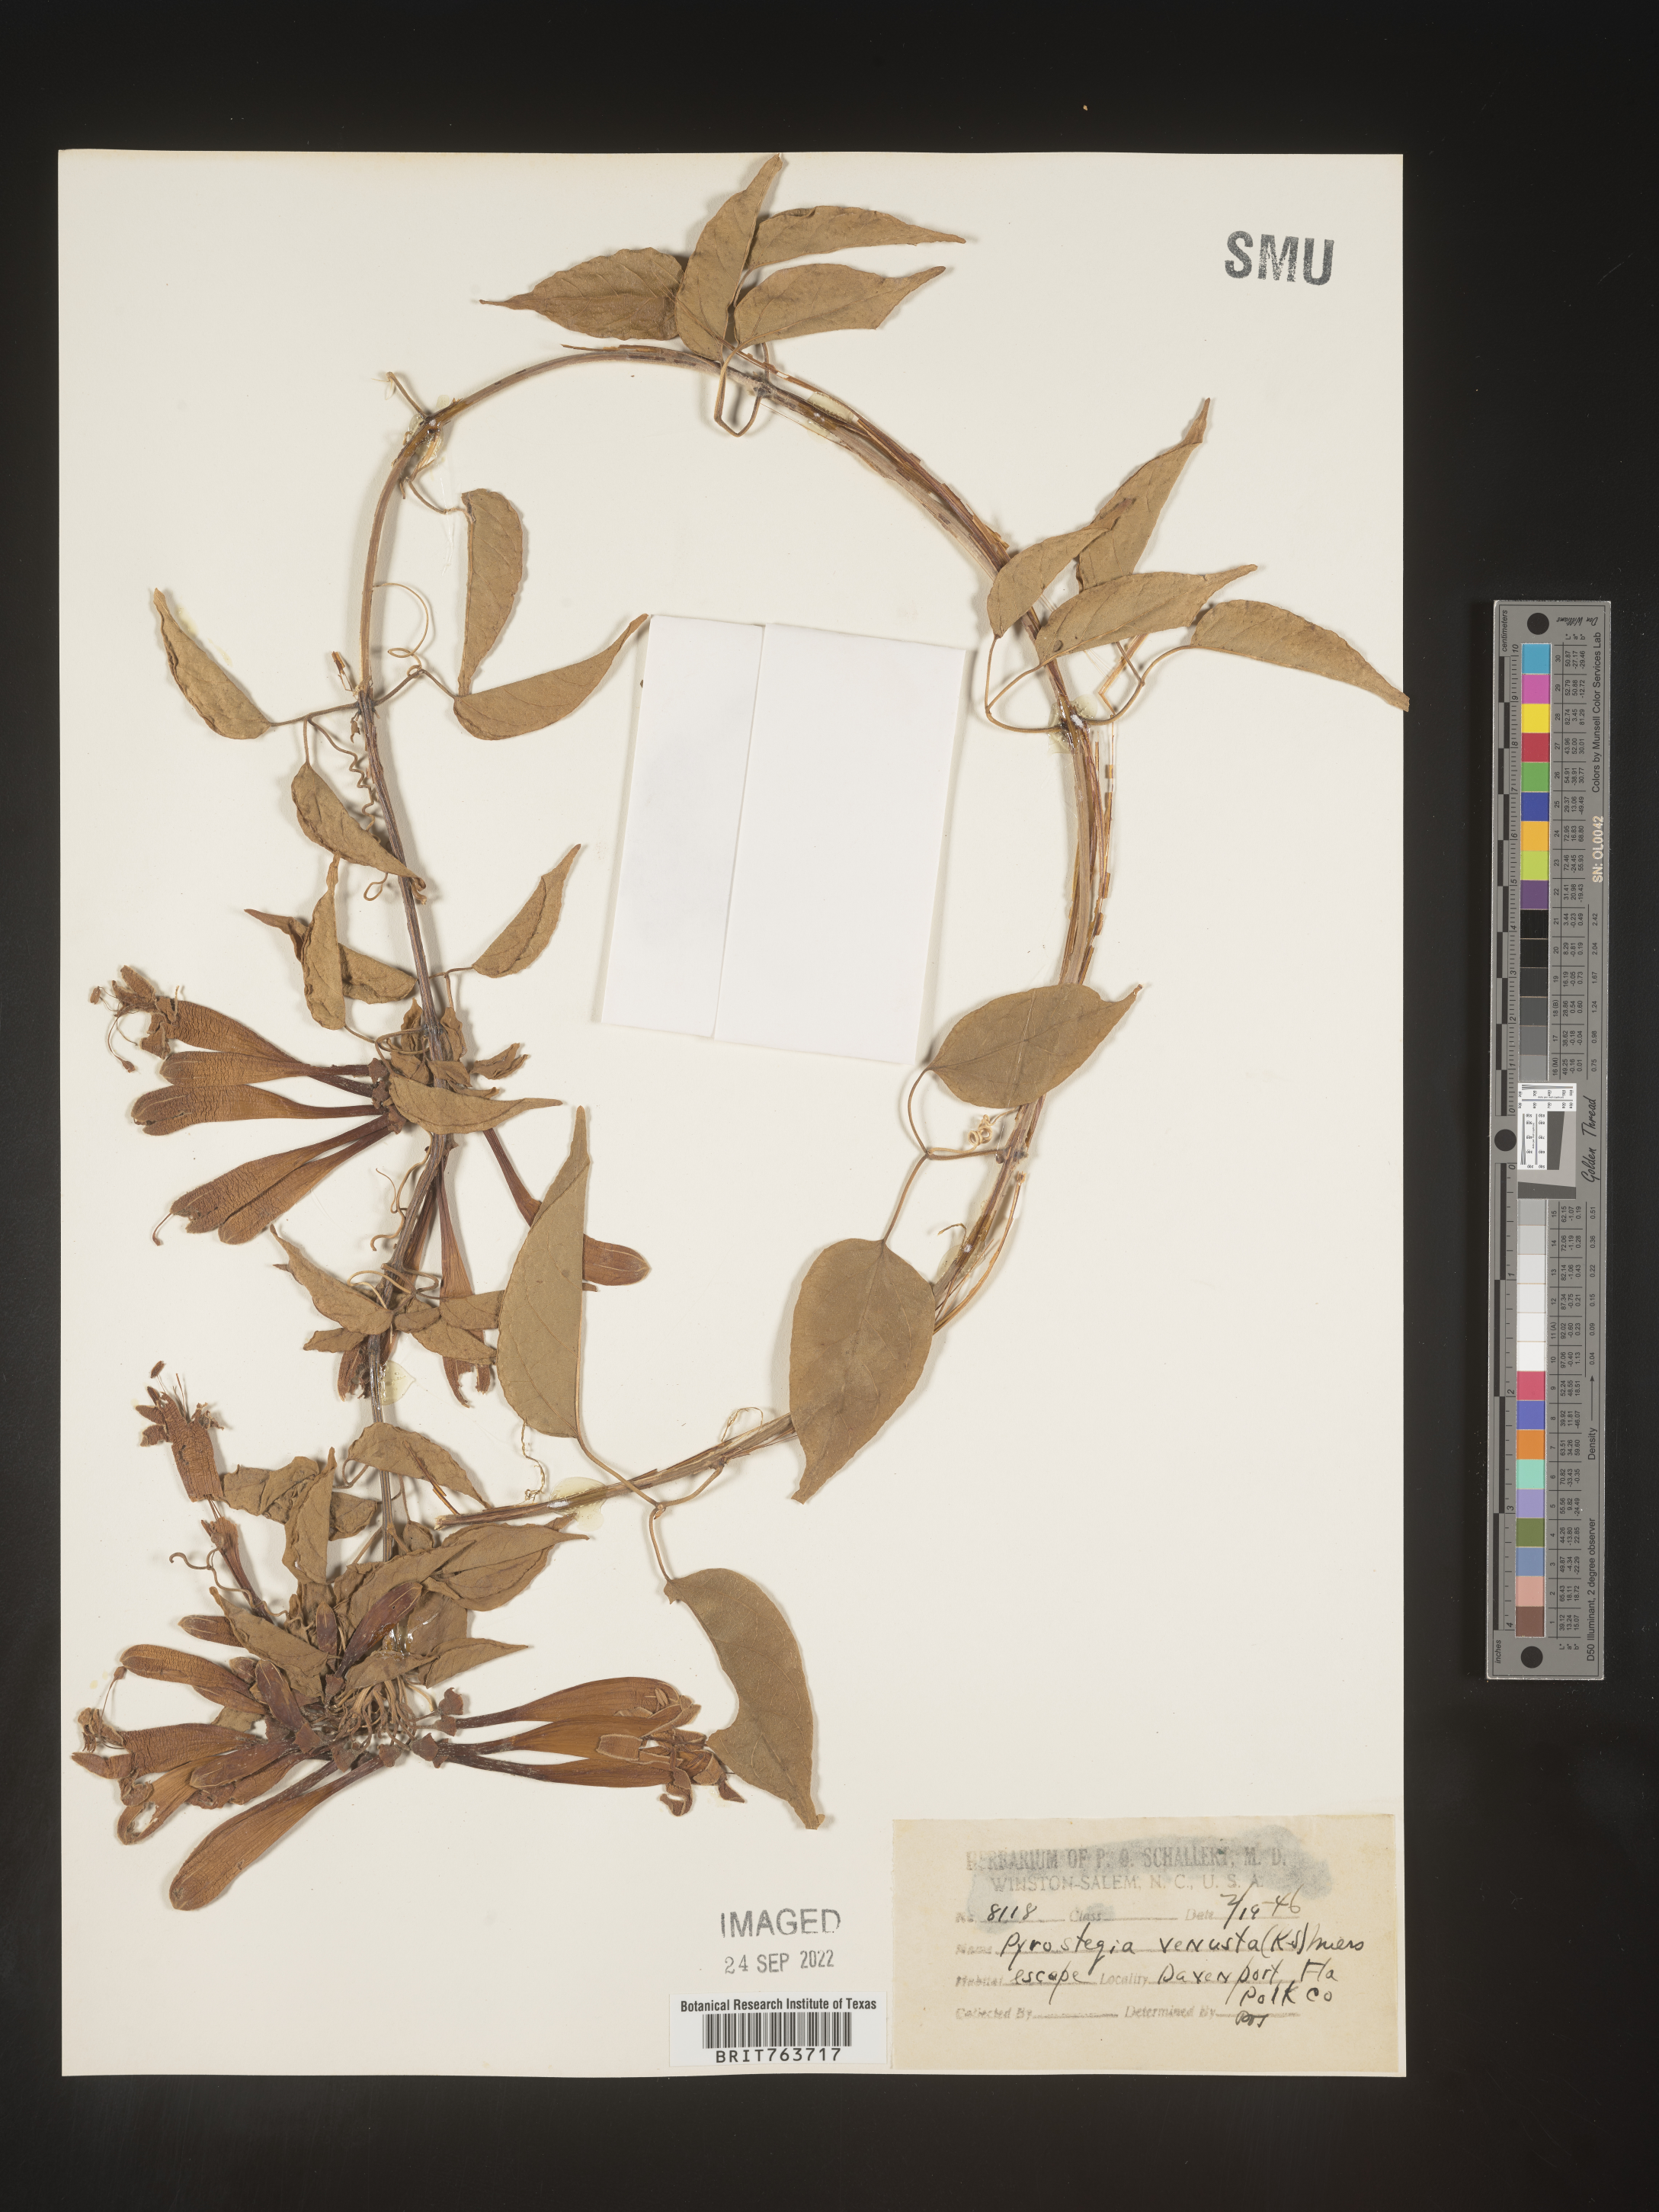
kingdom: Plantae
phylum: Tracheophyta
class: Magnoliopsida
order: Lamiales
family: Bignoniaceae
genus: Pyrostegia
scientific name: Pyrostegia
